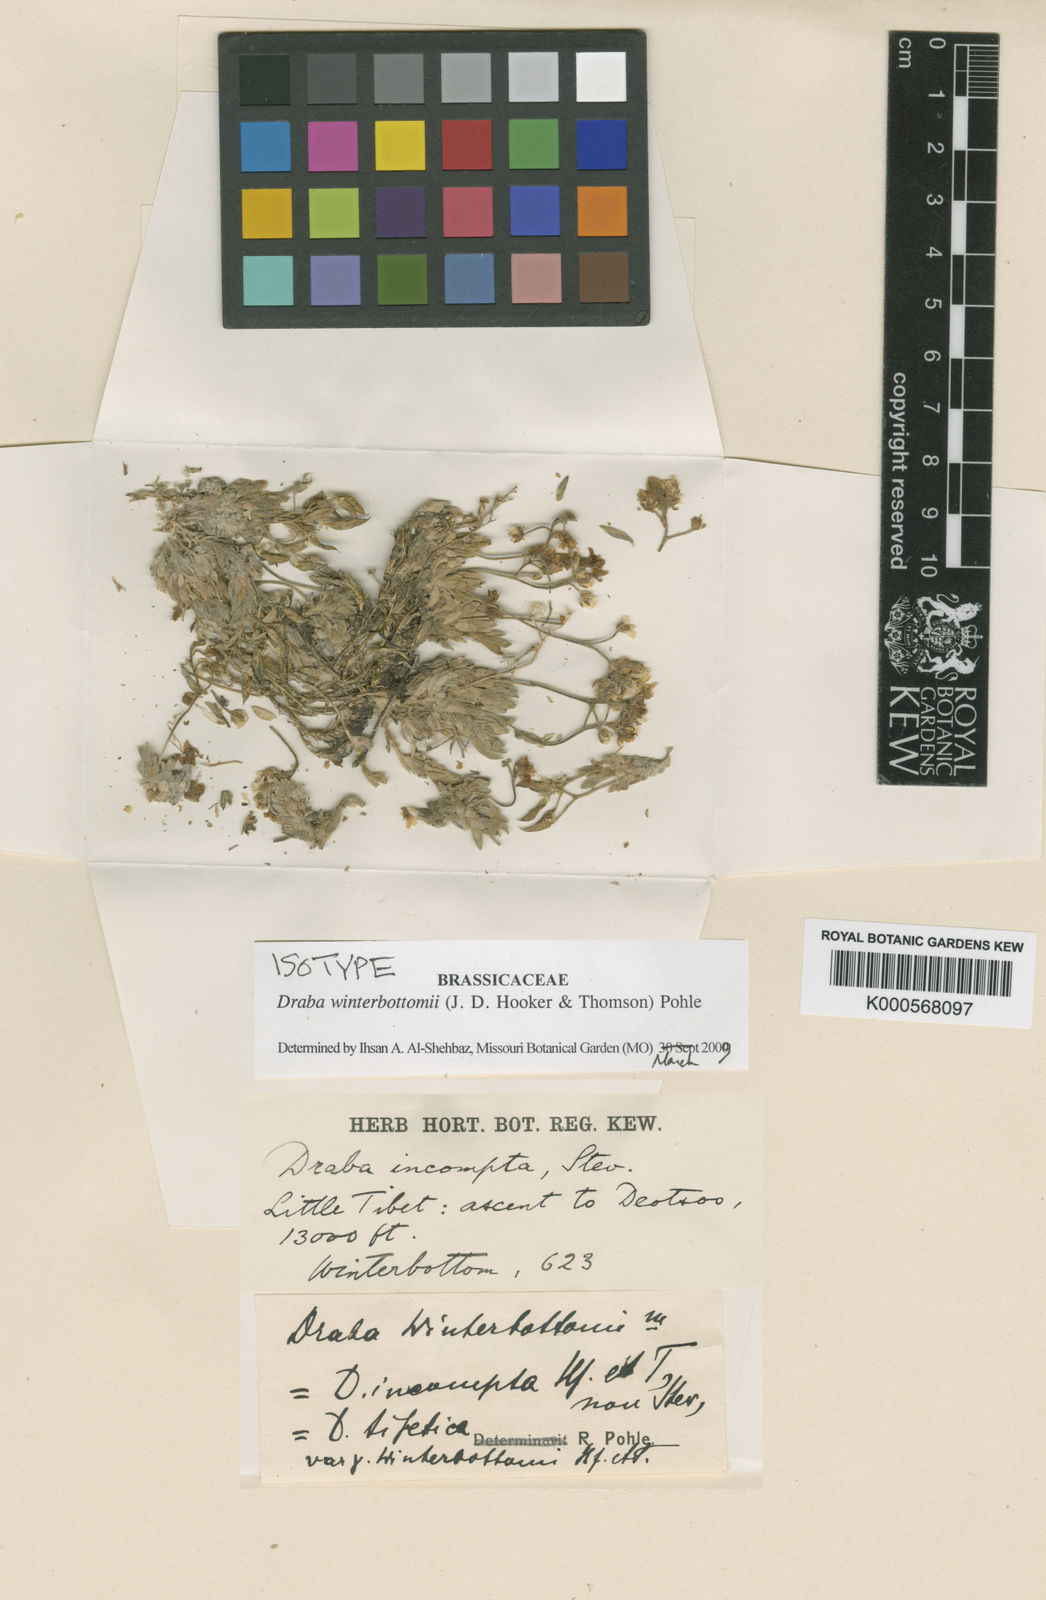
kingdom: Plantae
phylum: Tracheophyta
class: Magnoliopsida
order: Brassicales
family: Brassicaceae
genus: Draba
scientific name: Draba winterbottomii
